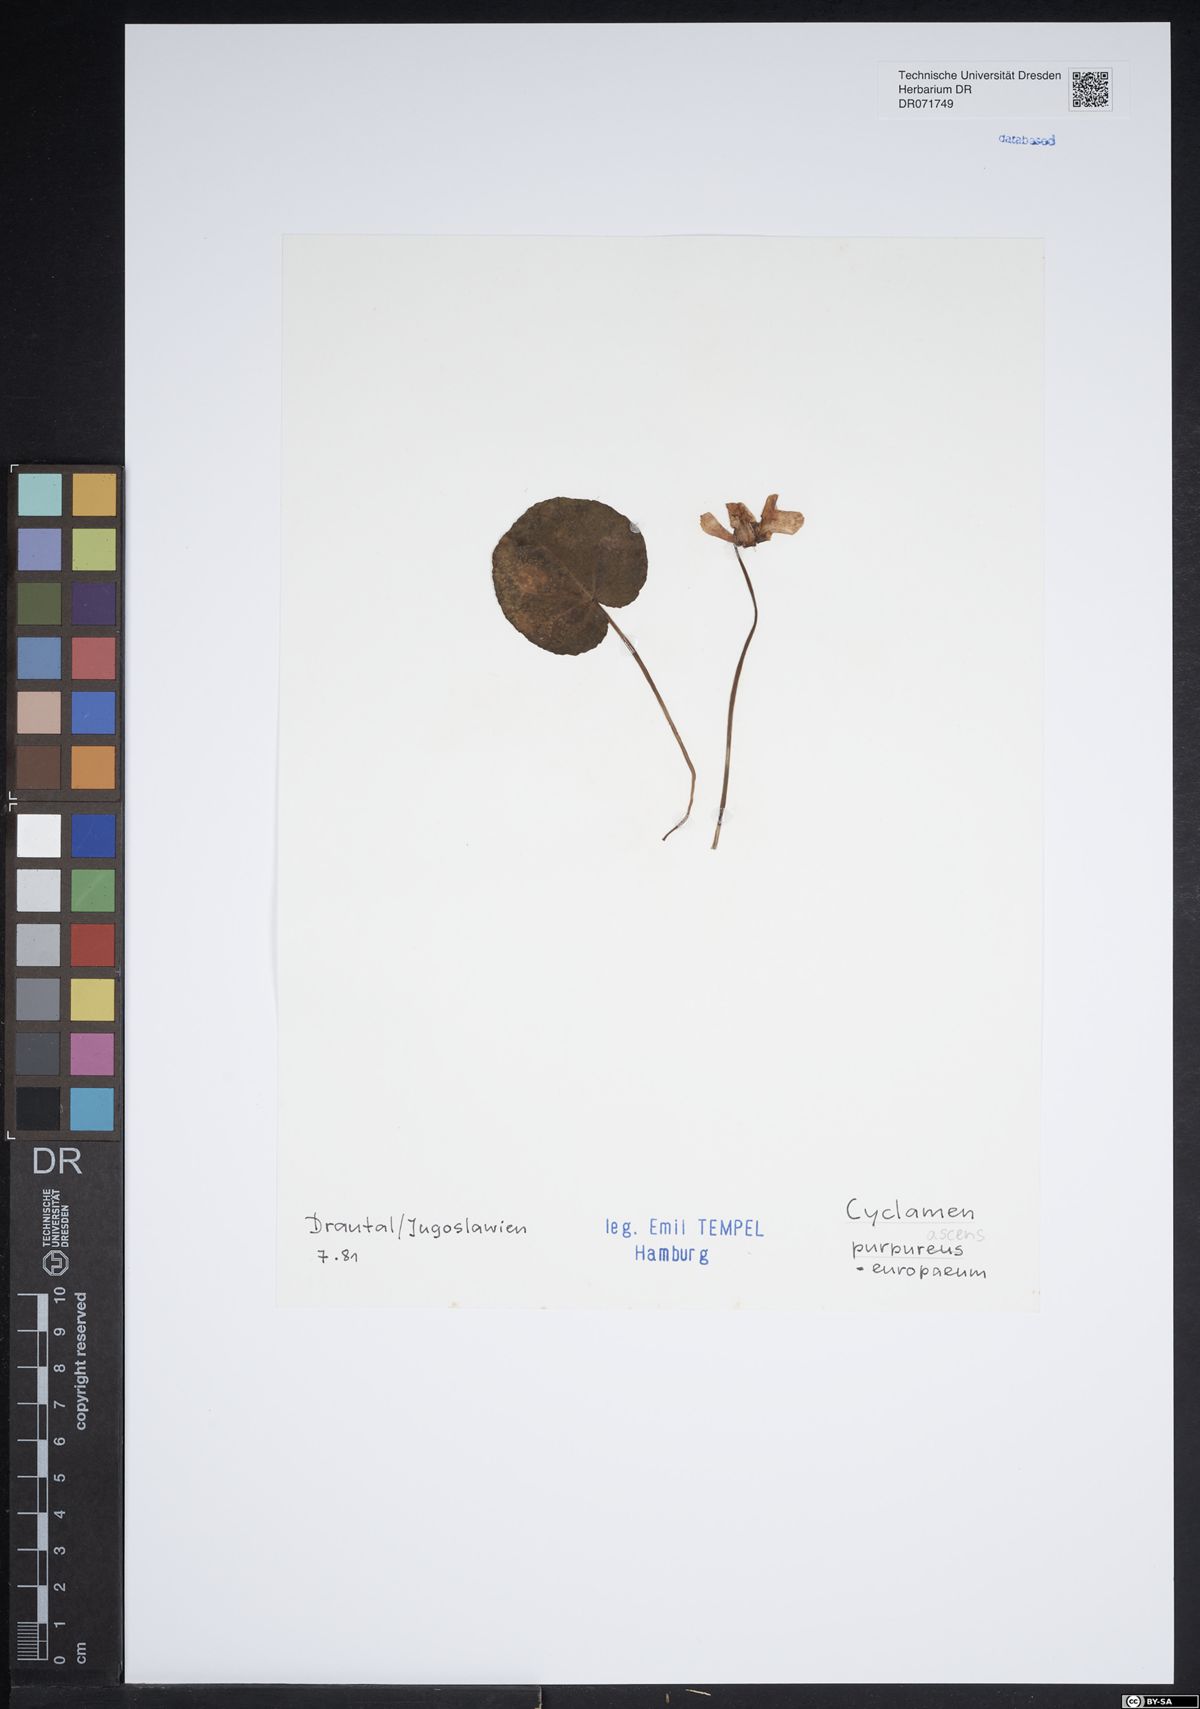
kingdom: Plantae
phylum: Tracheophyta
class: Magnoliopsida
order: Ericales
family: Primulaceae
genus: Cyclamen
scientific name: Cyclamen purpurascens
